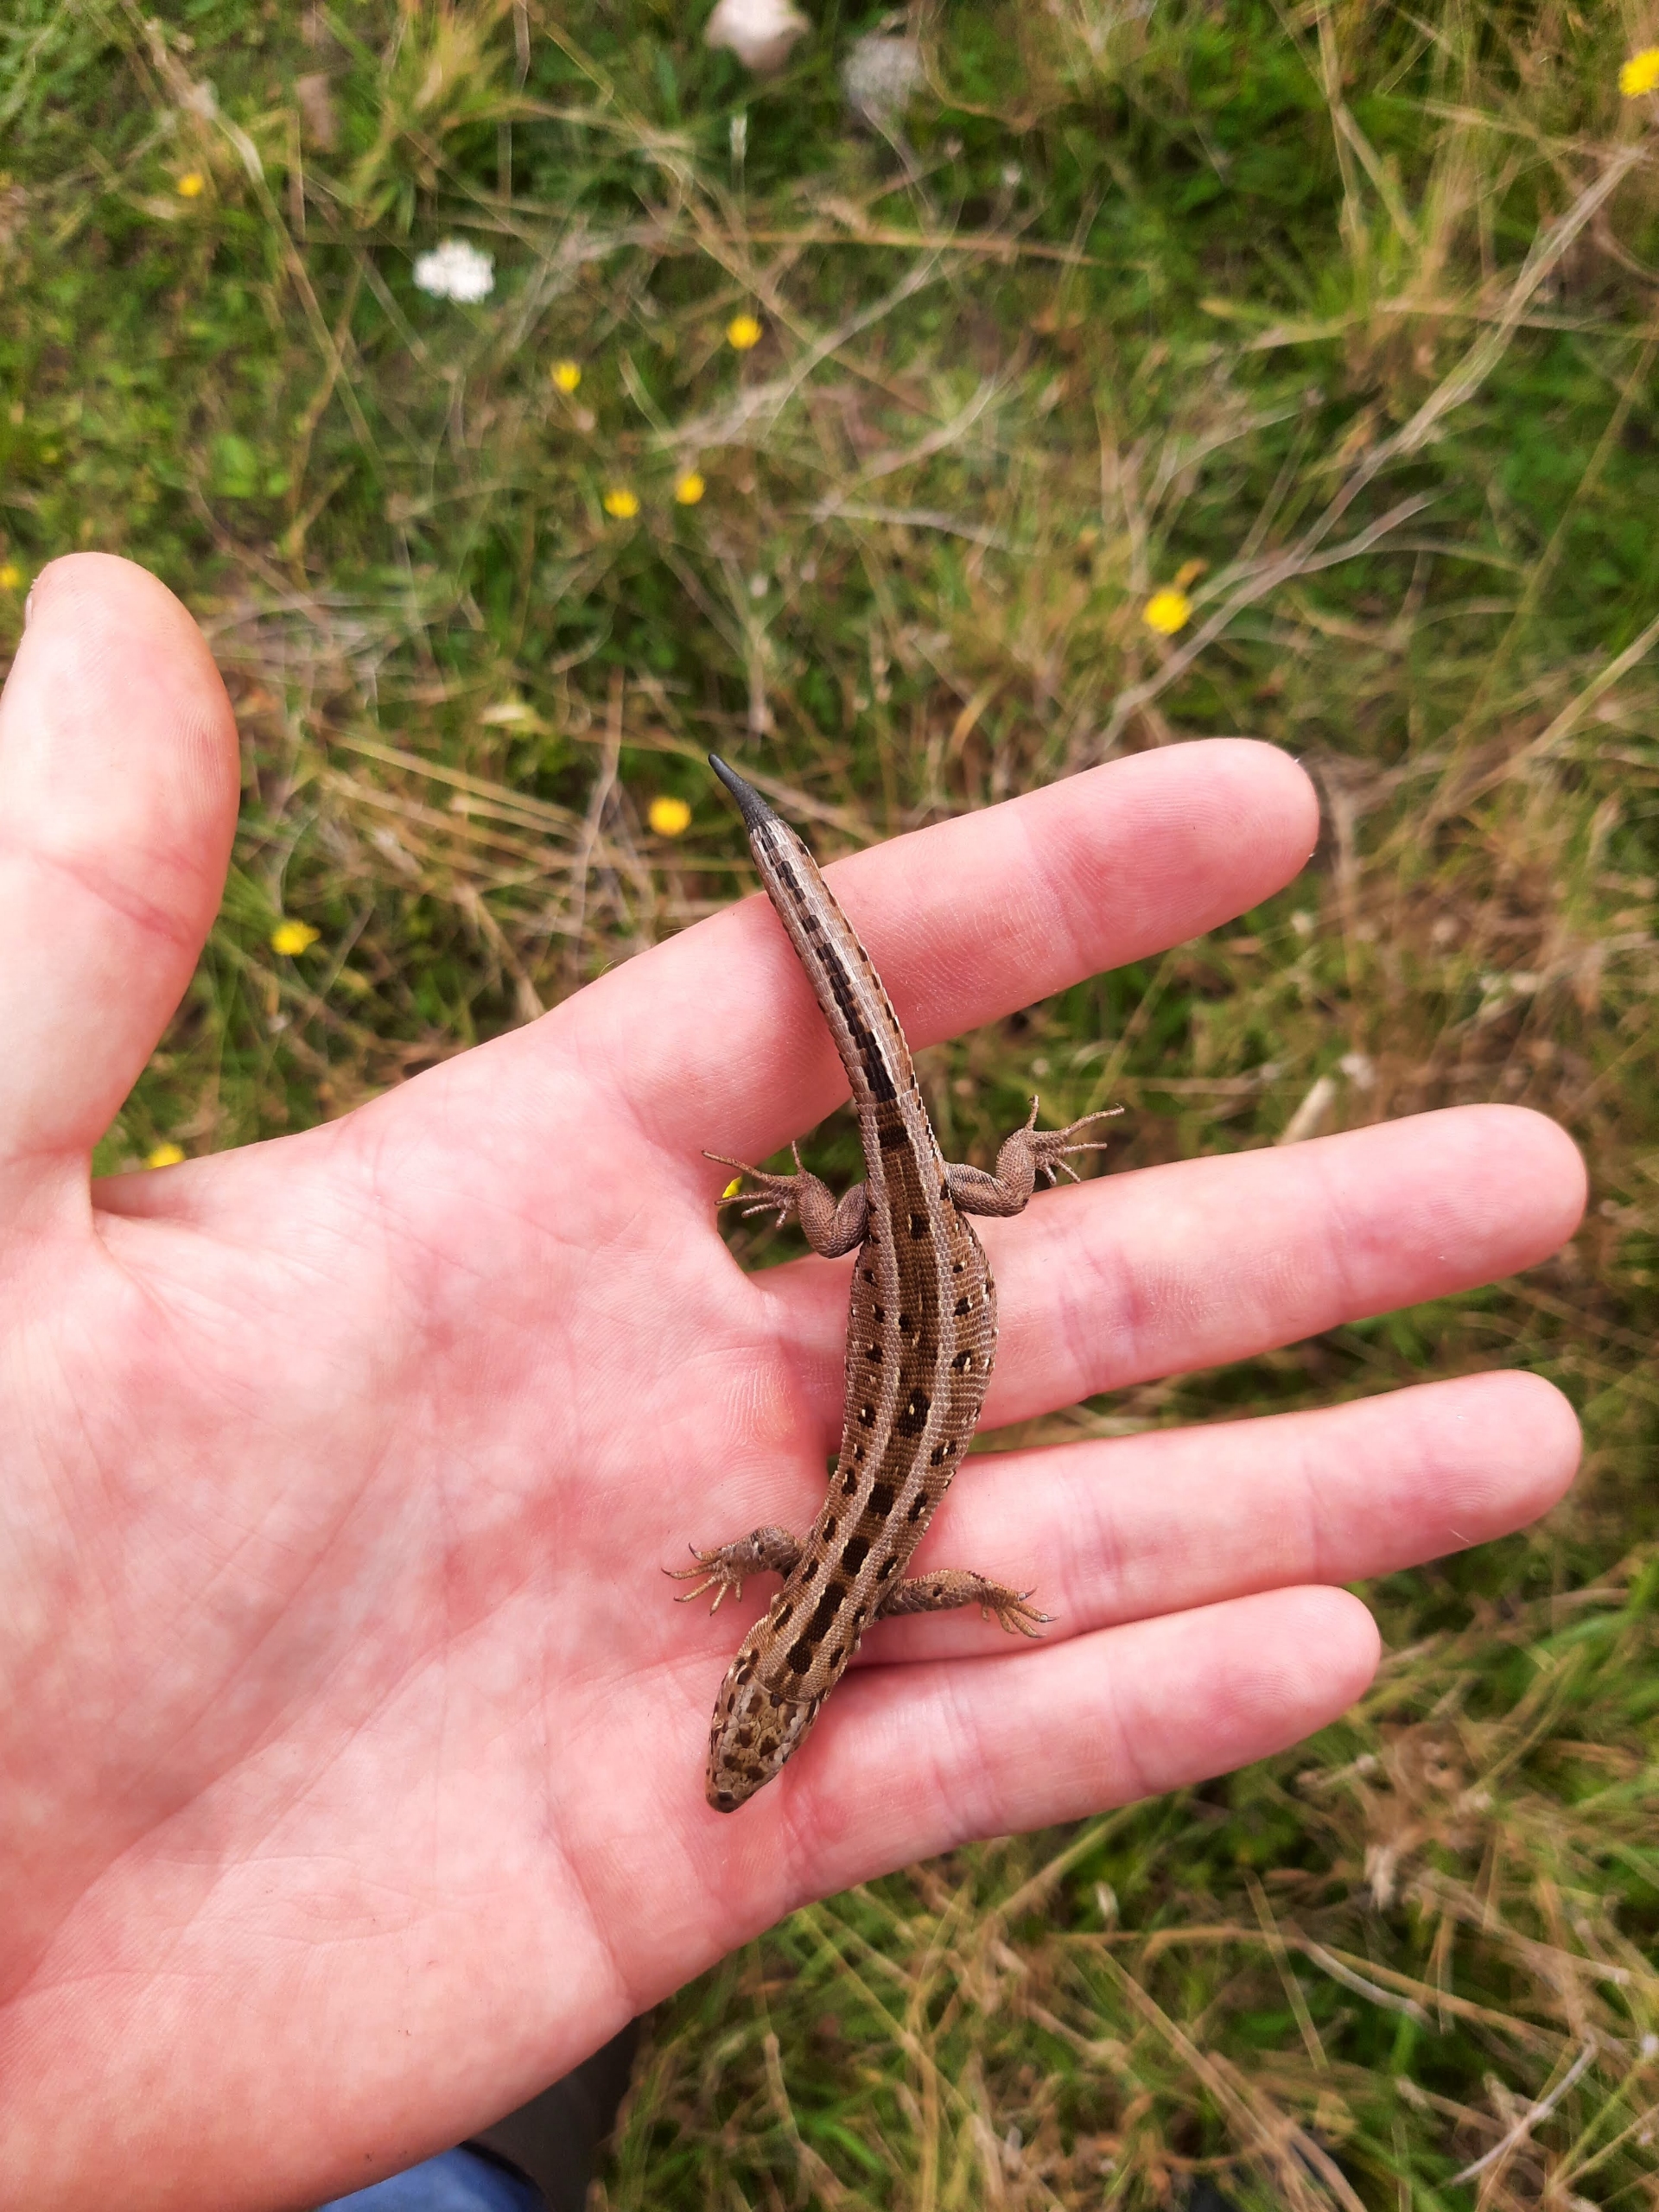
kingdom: Animalia
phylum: Chordata
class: Squamata
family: Lacertidae
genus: Lacerta
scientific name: Lacerta agilis
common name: Markfirben
